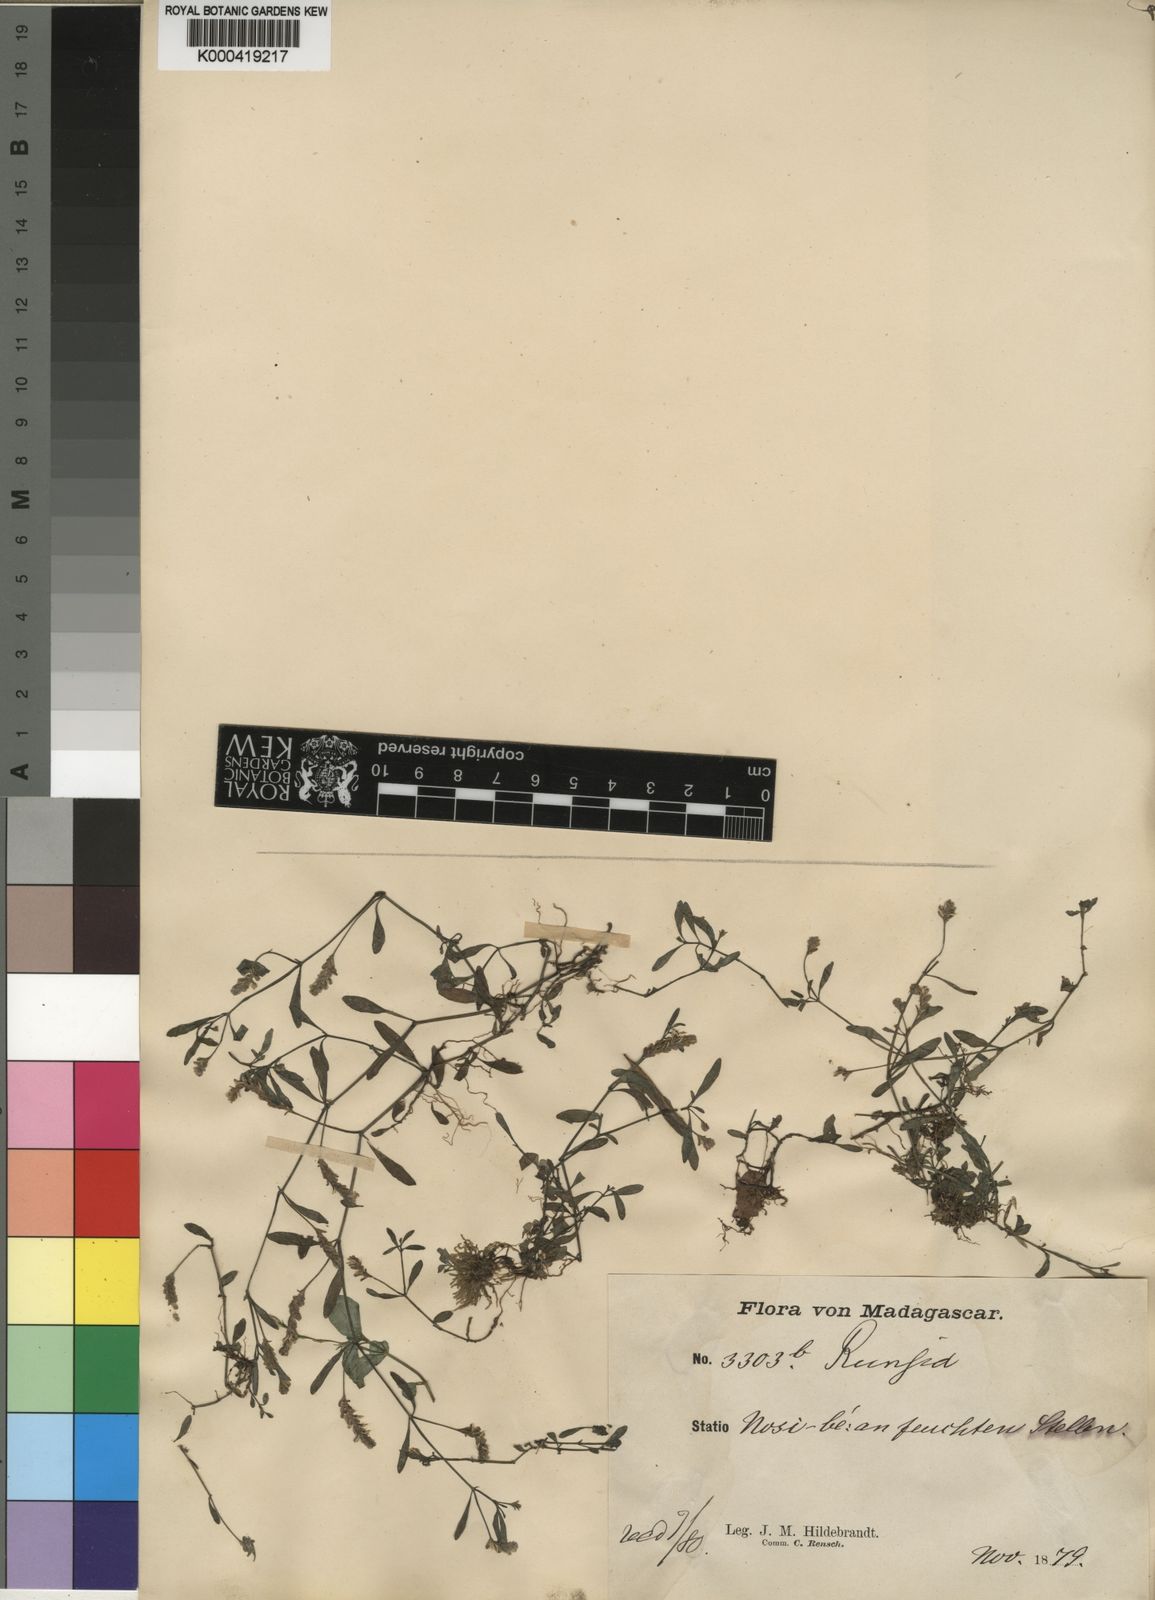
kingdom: Plantae
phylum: Tracheophyta
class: Magnoliopsida
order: Lamiales
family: Acanthaceae
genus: Justicia
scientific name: Justicia aquatica
